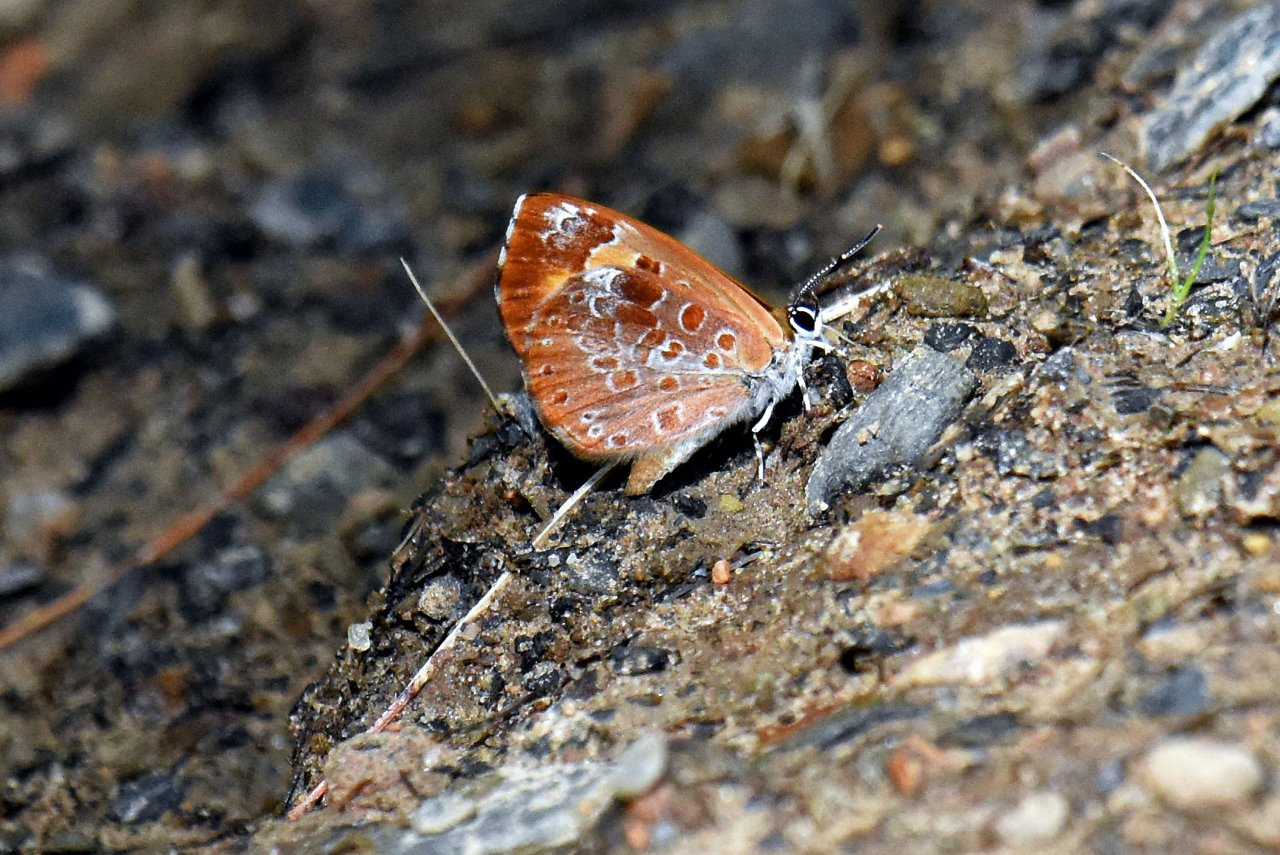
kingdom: Animalia
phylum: Arthropoda
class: Insecta
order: Lepidoptera
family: Lycaenidae
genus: Feniseca
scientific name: Feniseca tarquinius
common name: Harvester
